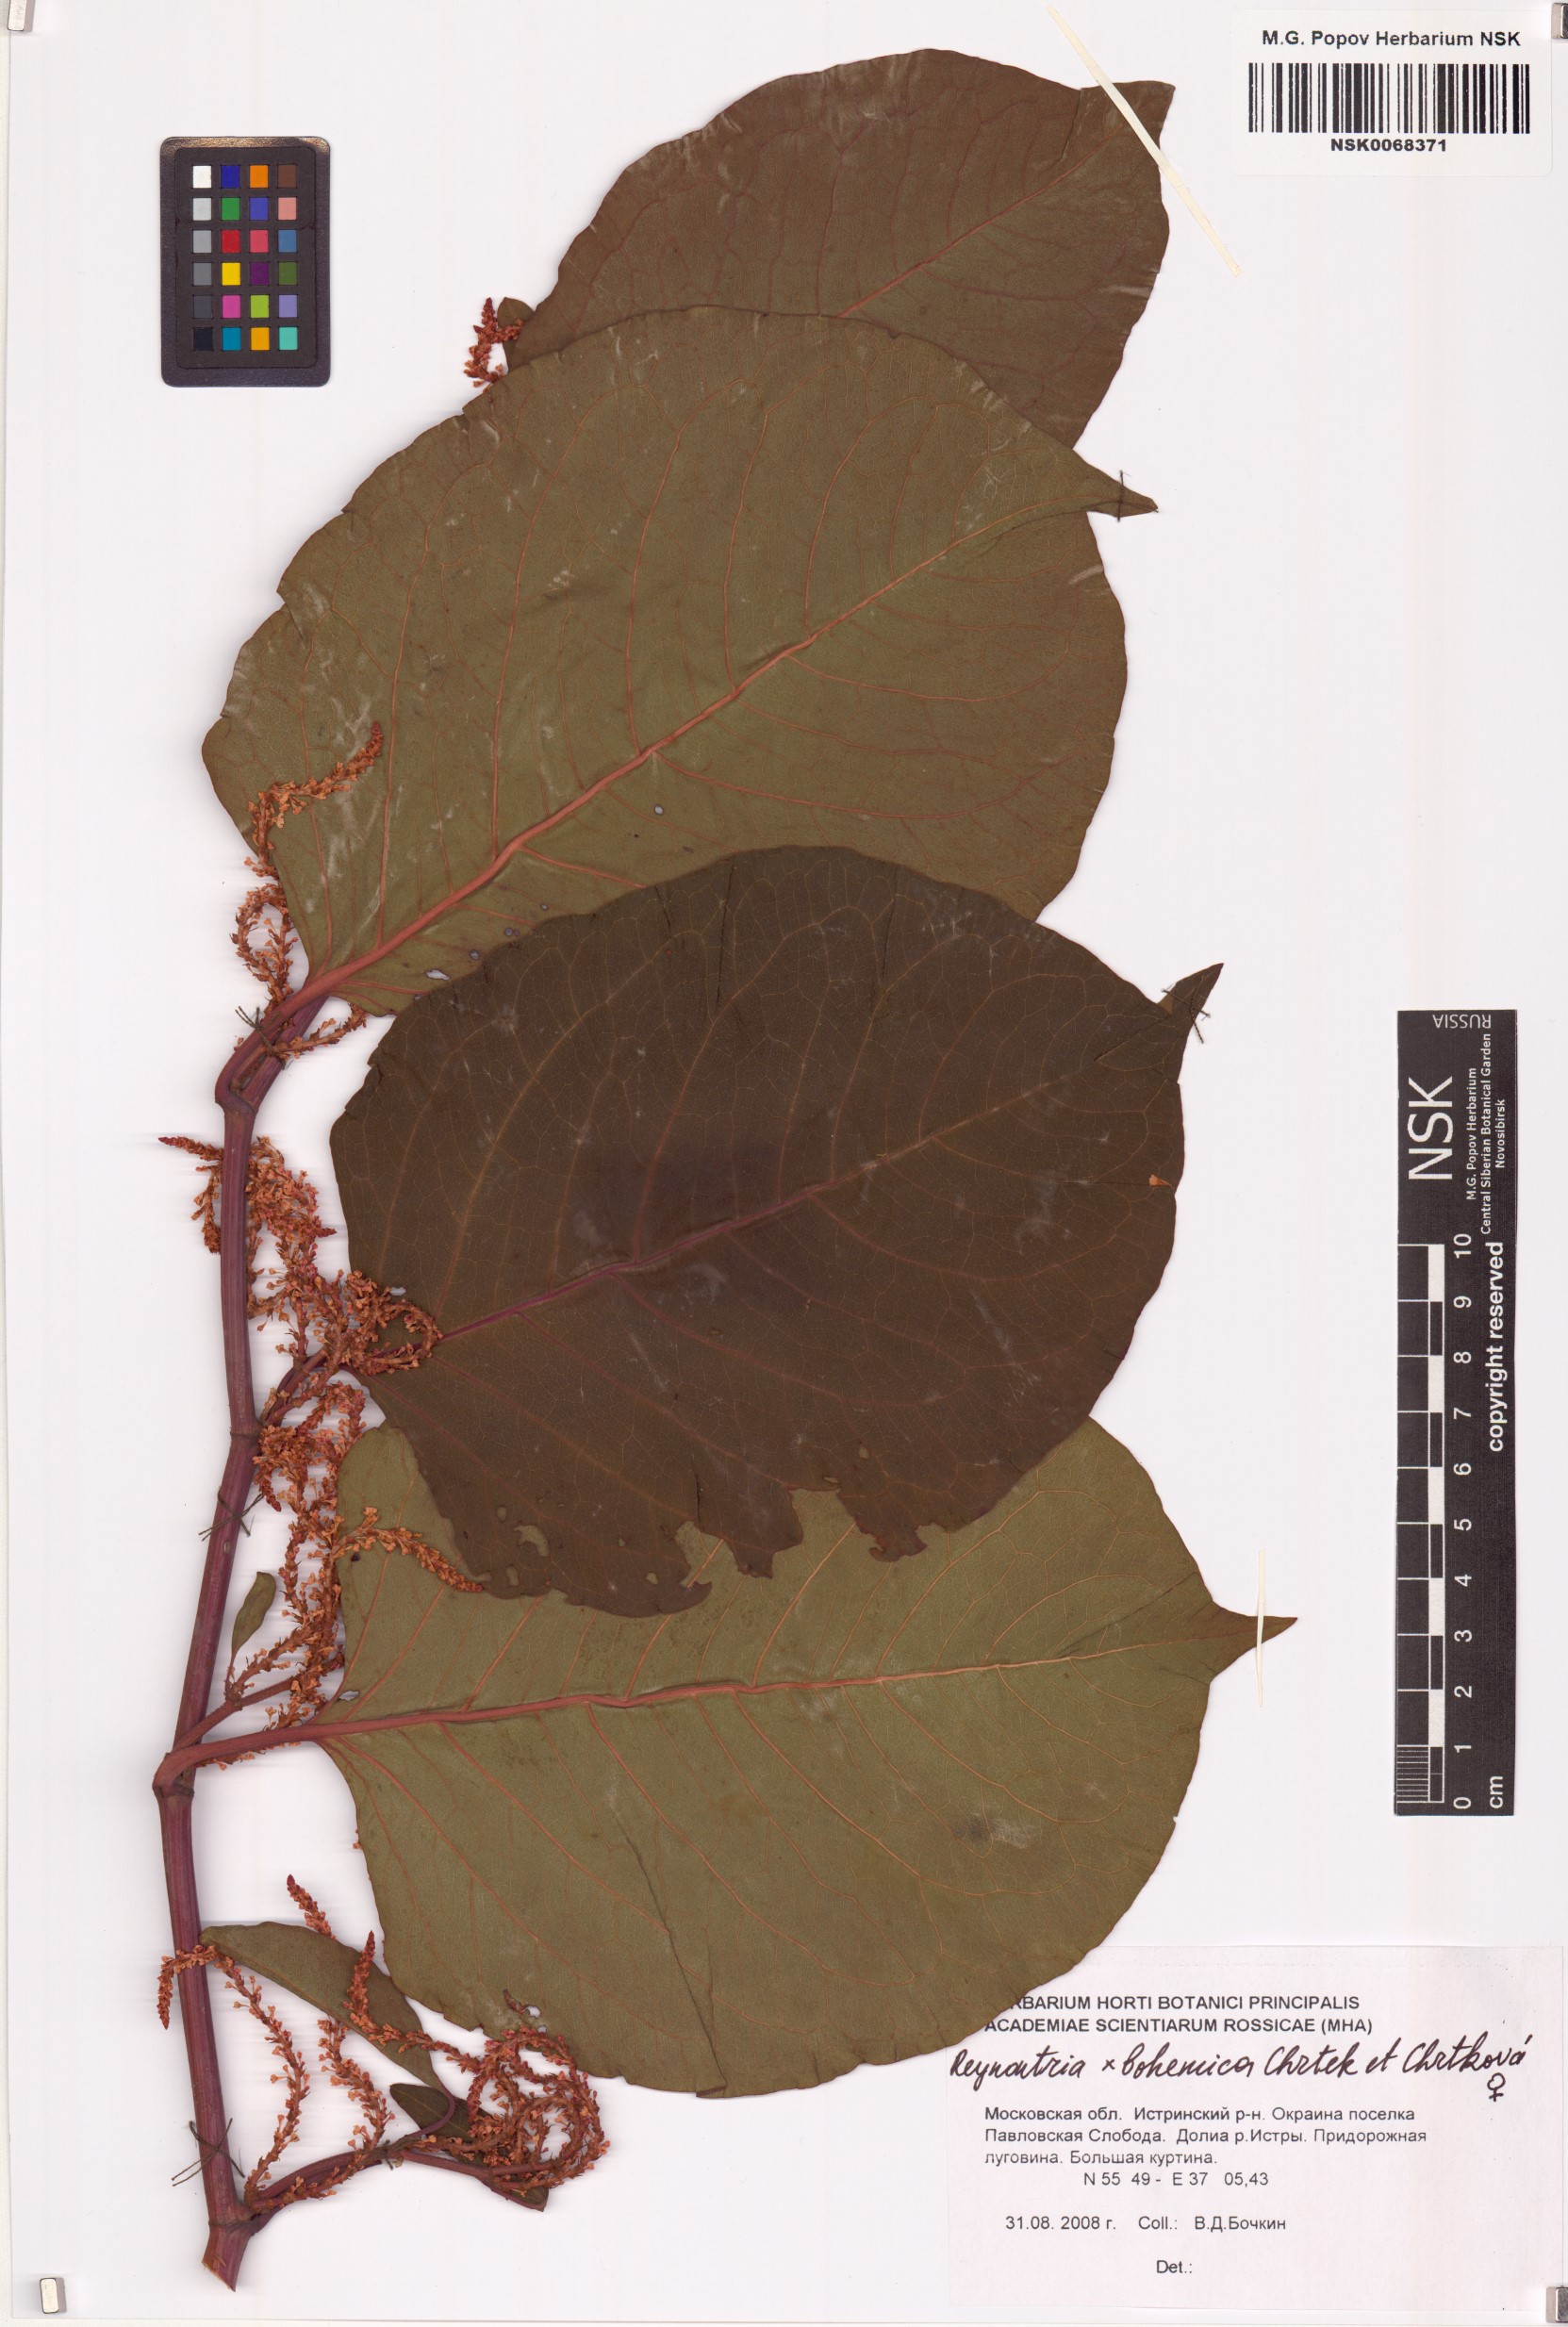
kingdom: Plantae
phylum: Tracheophyta
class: Magnoliopsida
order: Caryophyllales
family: Polygonaceae
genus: Reynoutria
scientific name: Reynoutria bohemica
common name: Bohemian knotweed
